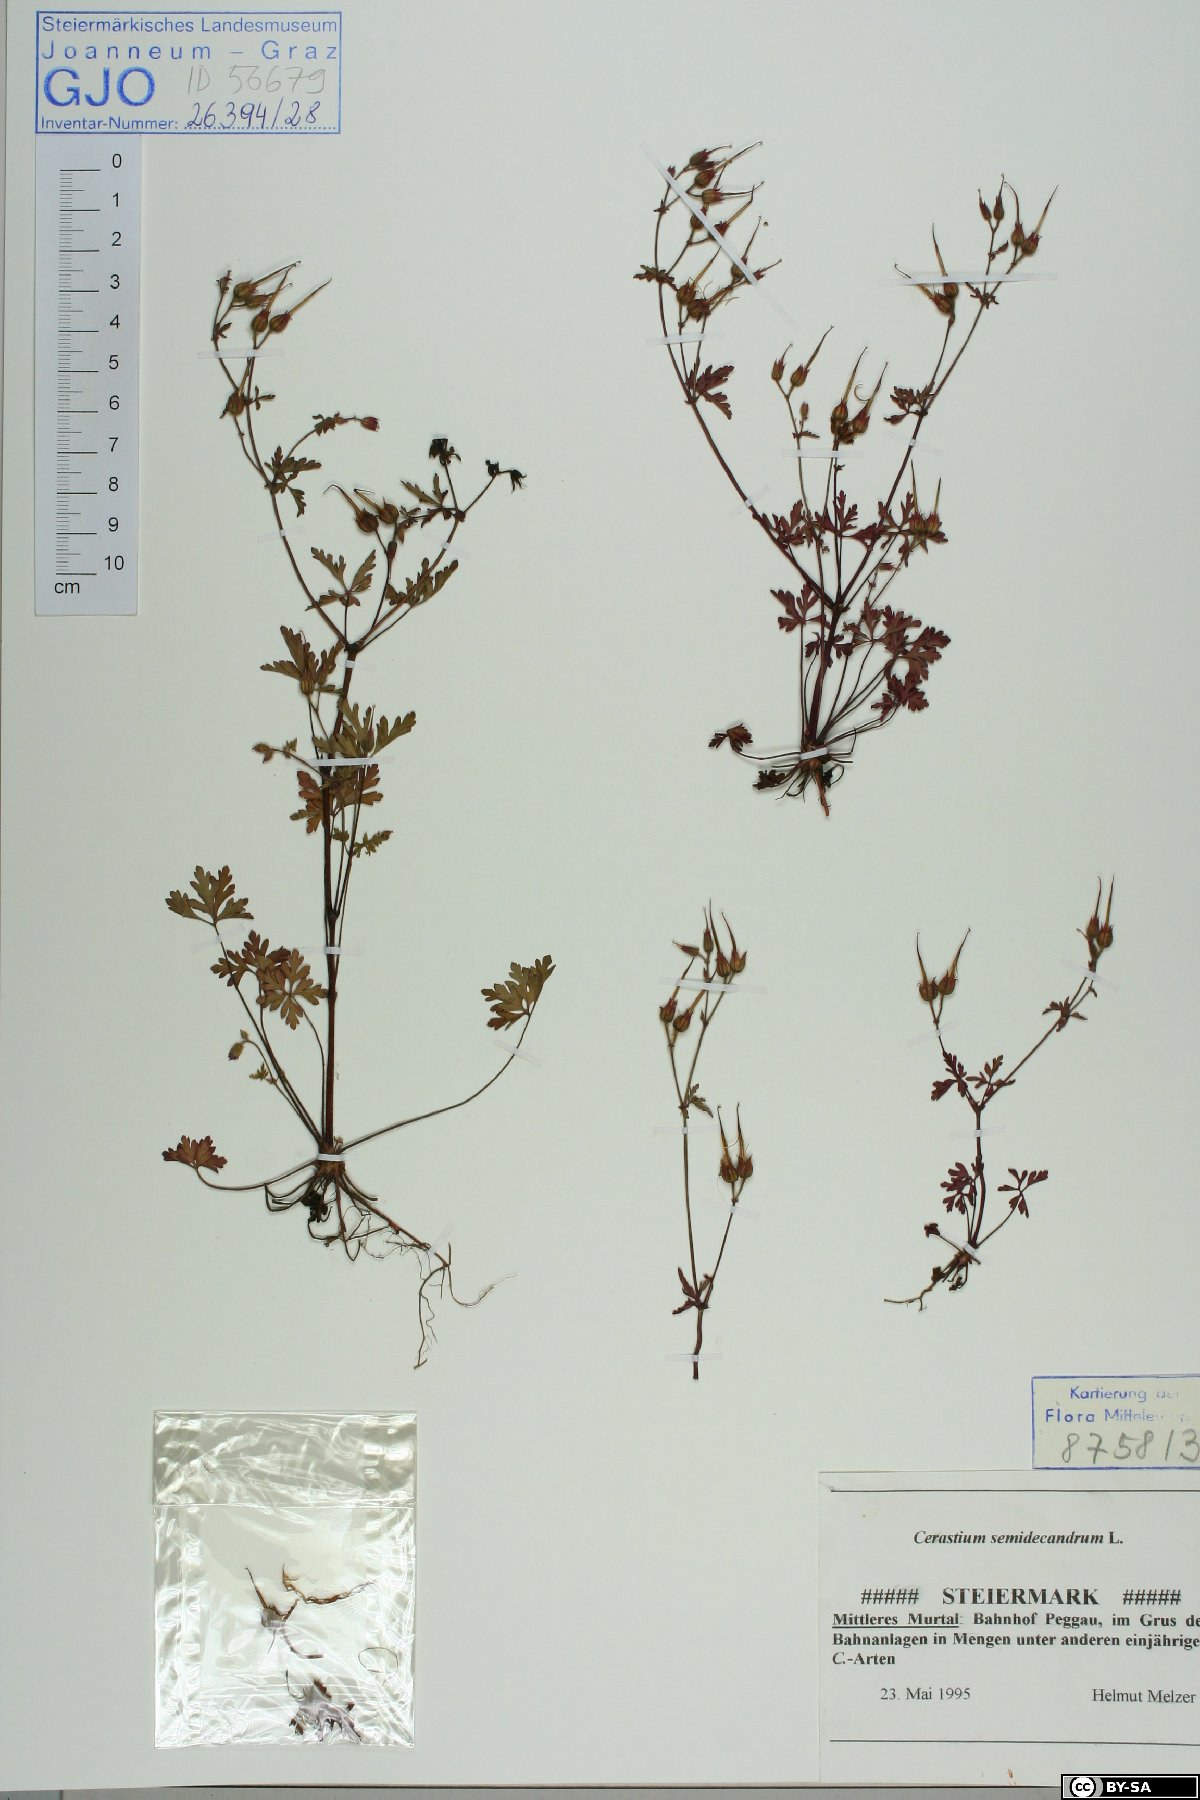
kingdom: Plantae
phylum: Tracheophyta
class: Magnoliopsida
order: Caryophyllales
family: Caryophyllaceae
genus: Cerastium
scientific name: Cerastium semidecandrum
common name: Little mouse-ear
